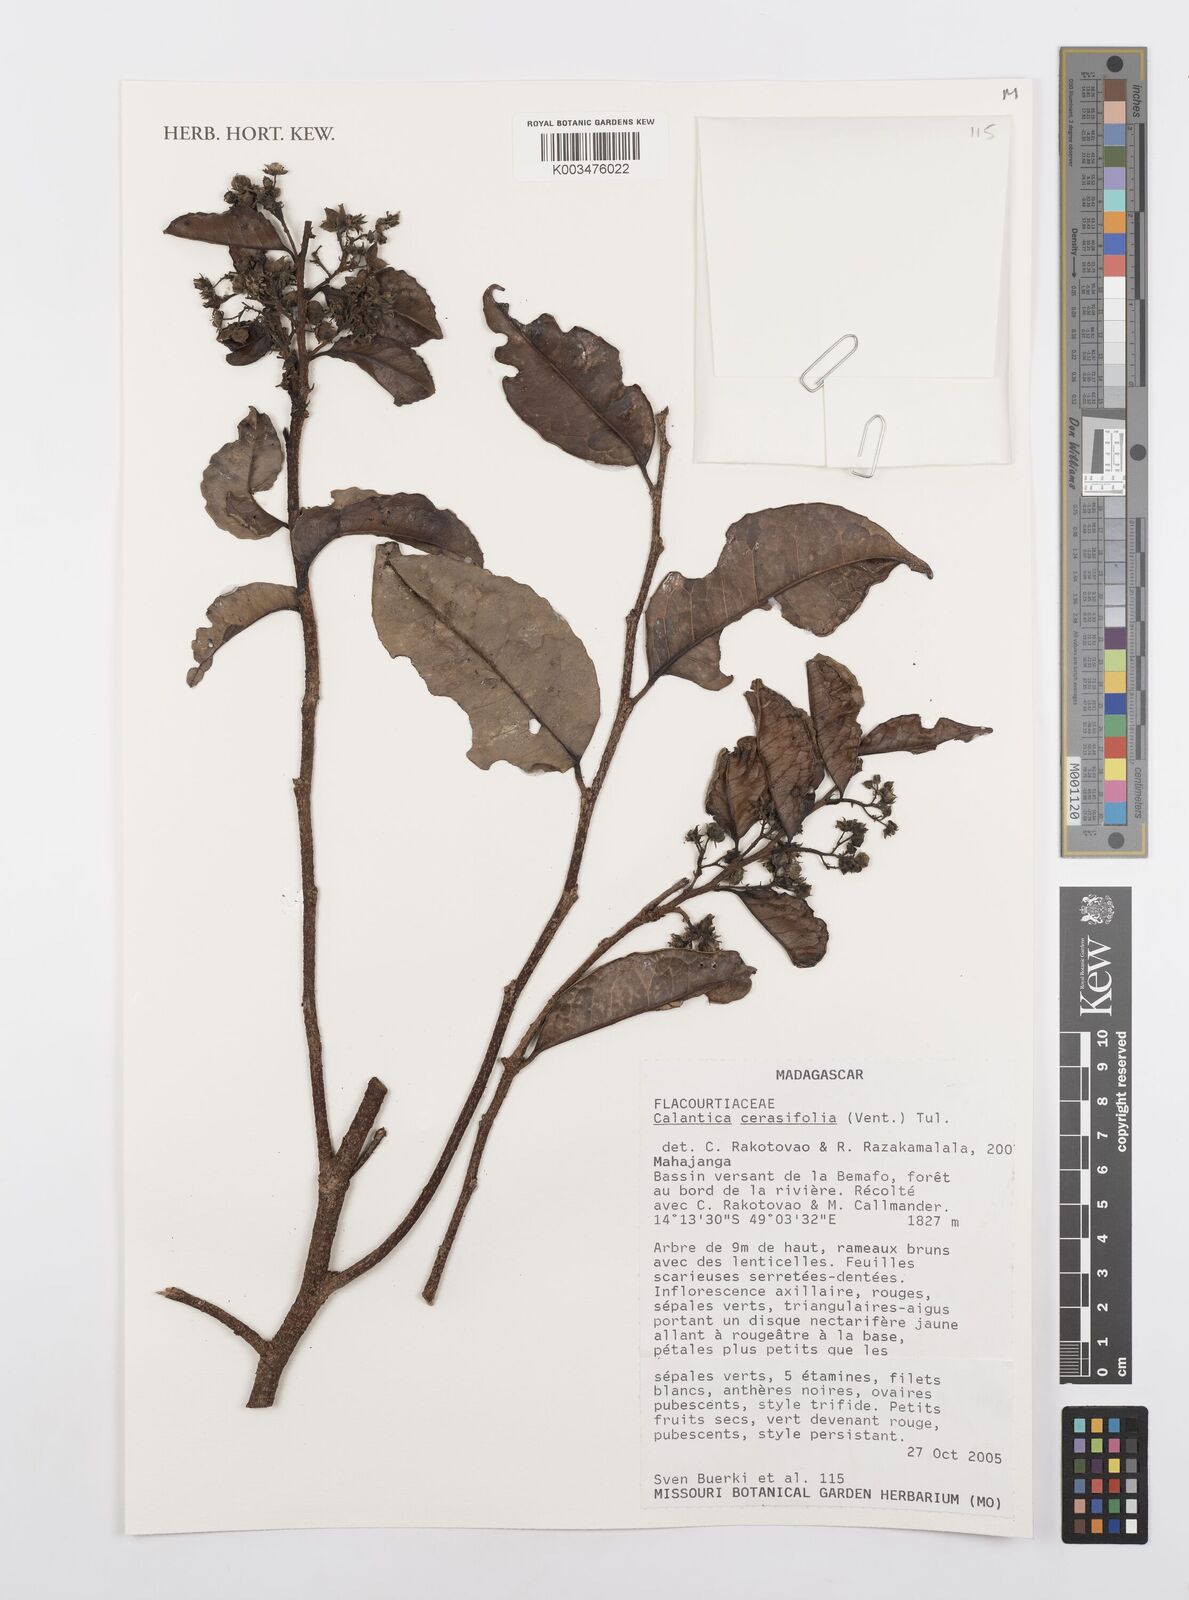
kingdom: Plantae
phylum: Tracheophyta
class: Magnoliopsida
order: Malpighiales
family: Salicaceae
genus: Calantica
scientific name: Calantica cerasifolia
